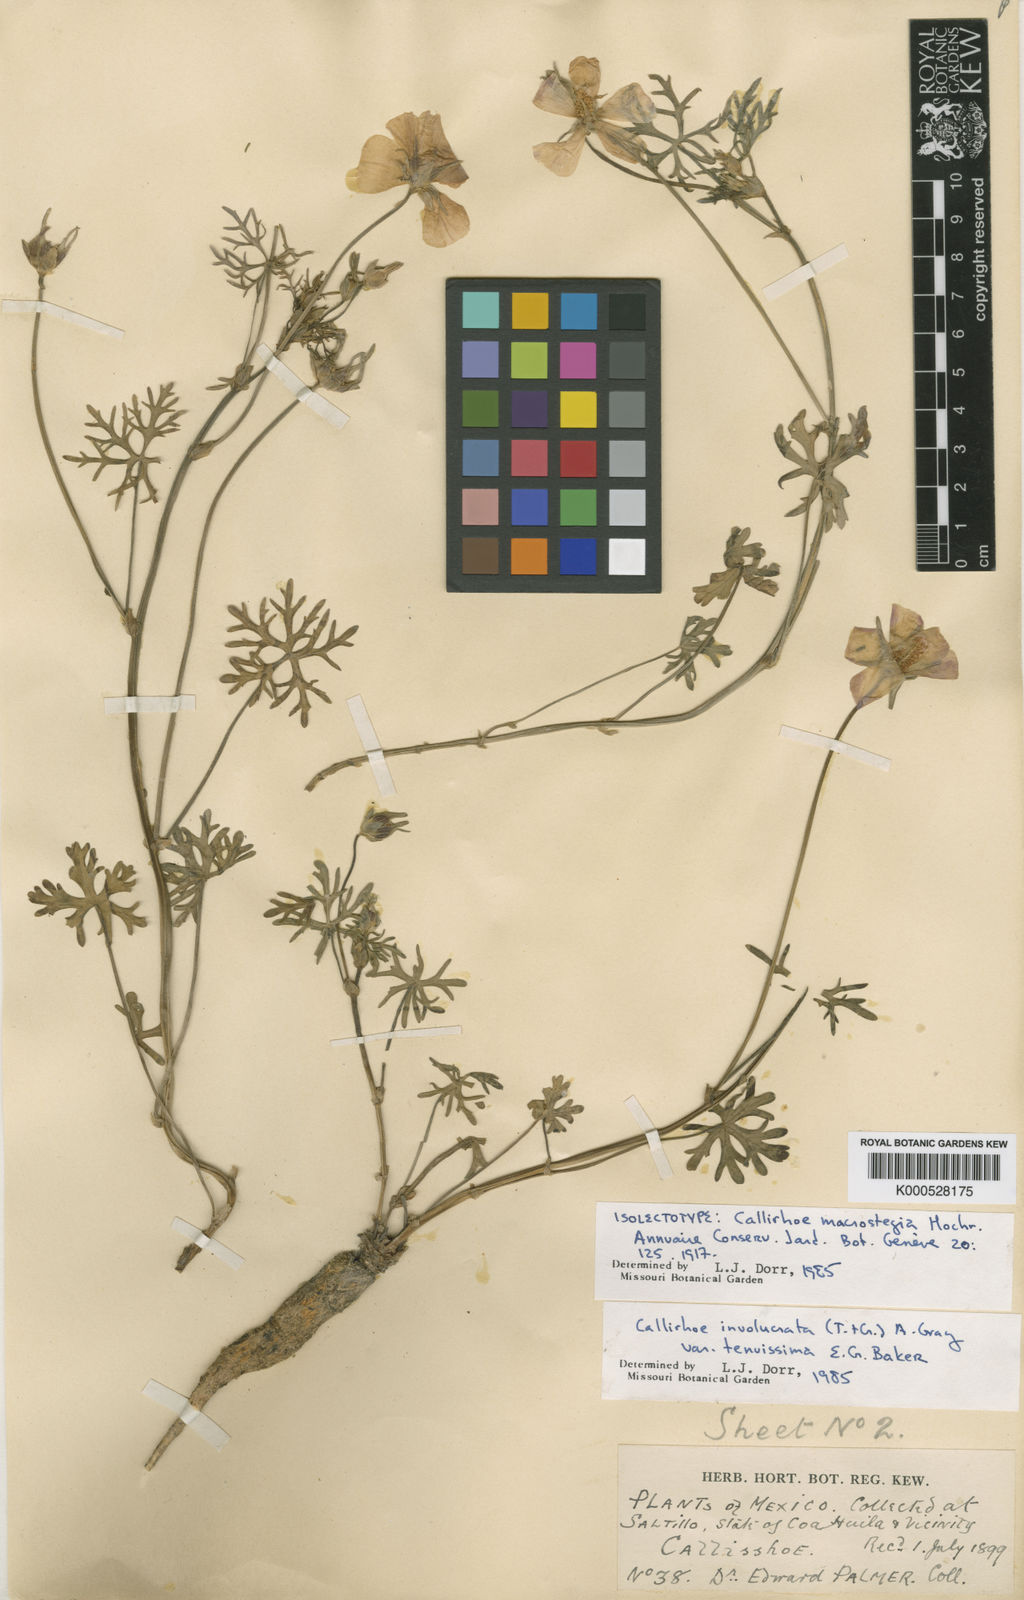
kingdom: Plantae
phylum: Tracheophyta
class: Magnoliopsida
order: Malvales
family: Malvaceae
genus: Callirhoe
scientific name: Callirhoe involucrata
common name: Purple poppy-mallow
